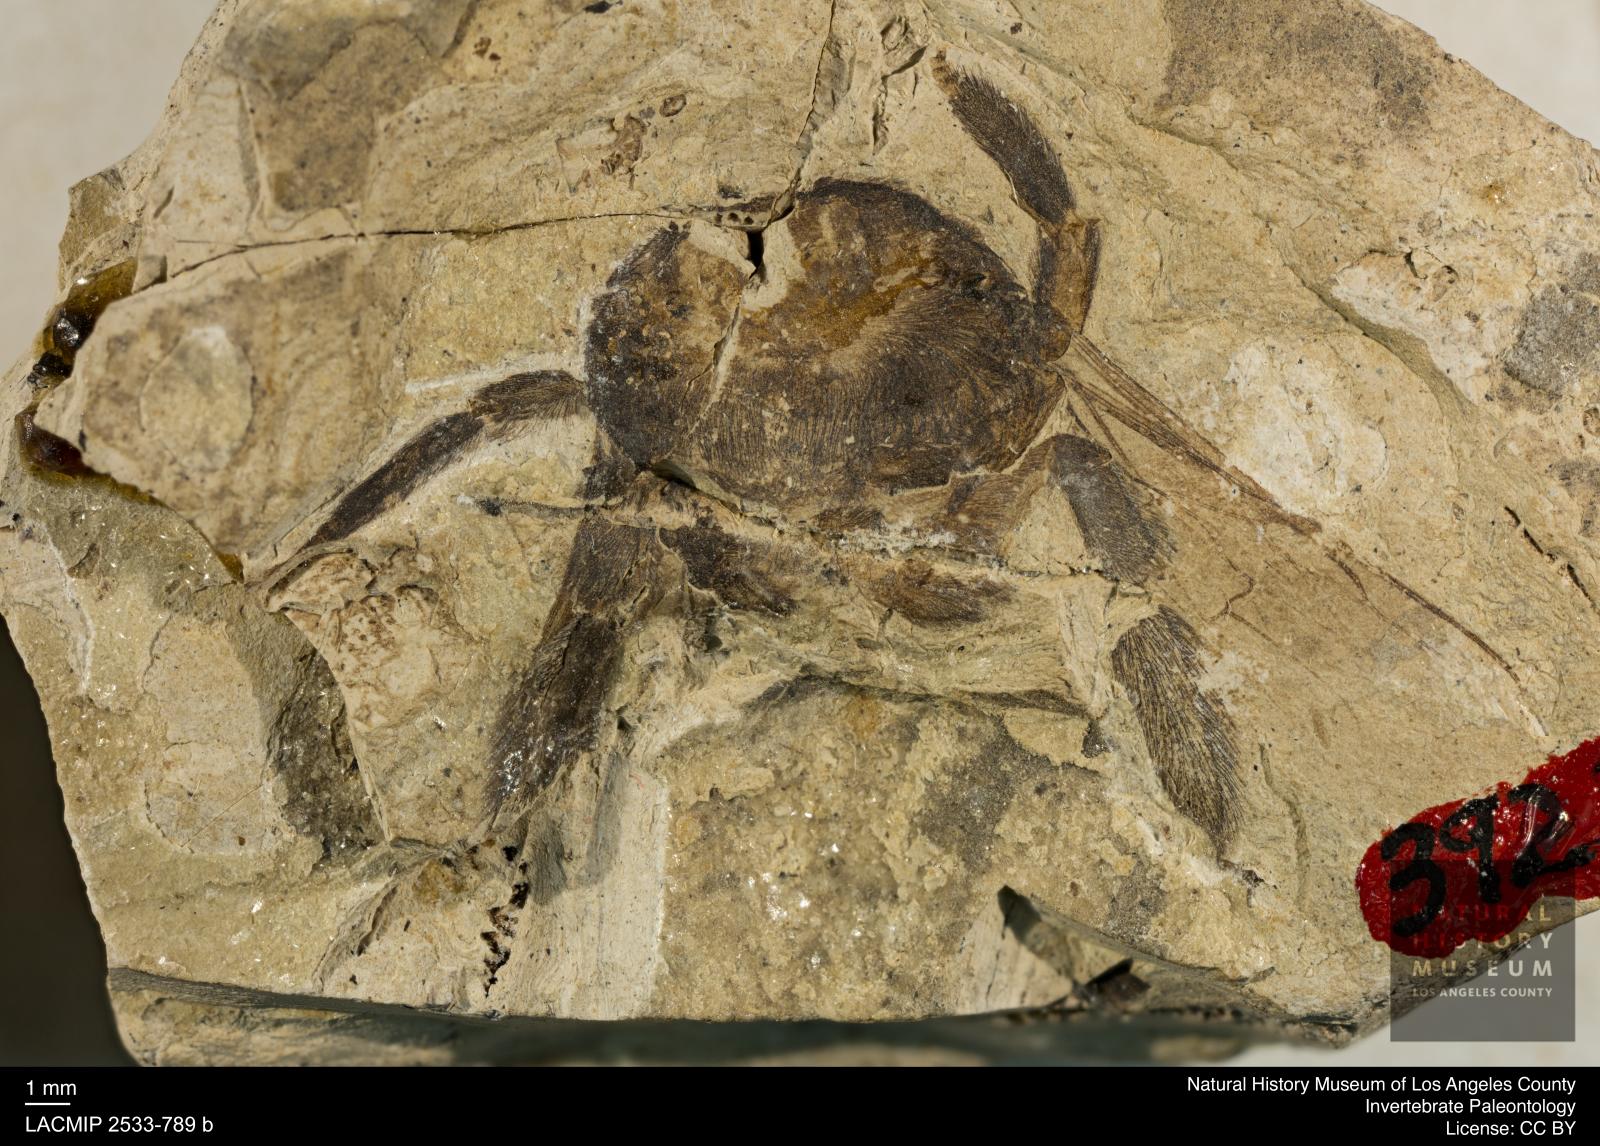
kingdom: Animalia
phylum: Arthropoda
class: Insecta
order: Hymenoptera
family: Apidae
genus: Xylocopa
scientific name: Xylocopa friesei
